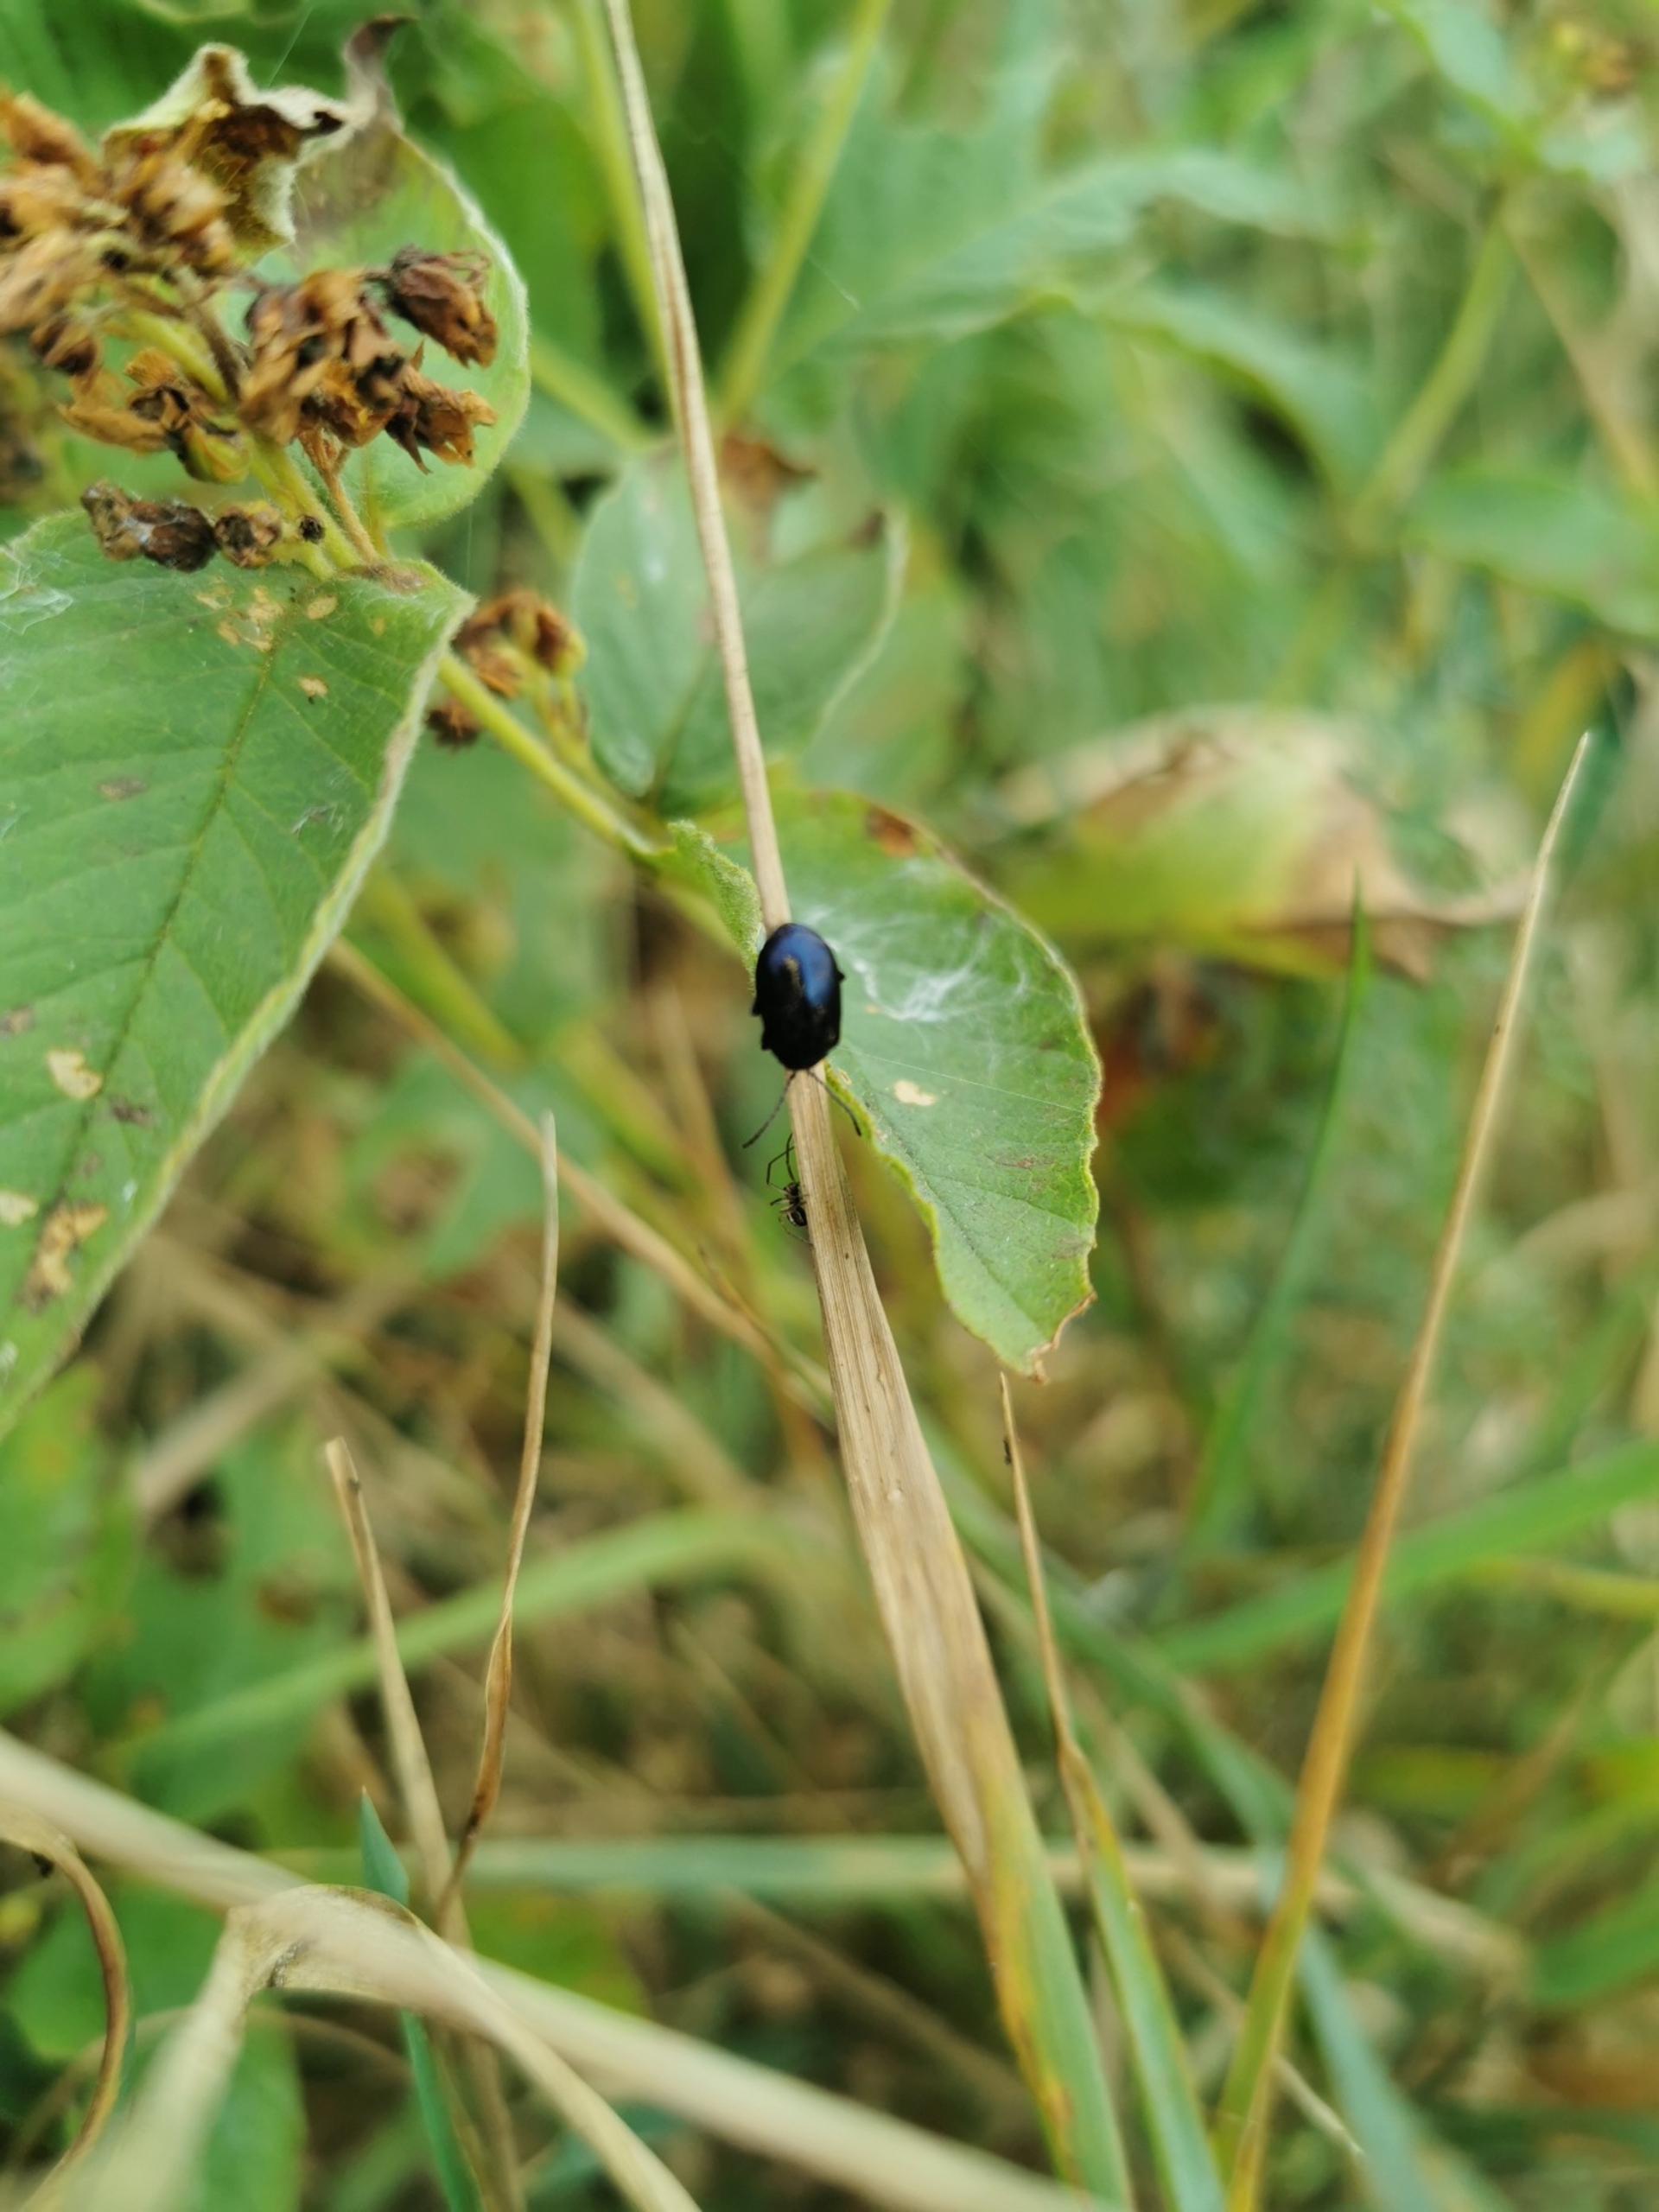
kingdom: Animalia
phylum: Arthropoda
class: Insecta
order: Coleoptera
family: Chrysomelidae
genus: Agelastica
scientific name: Agelastica alni
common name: Ellebladbille
